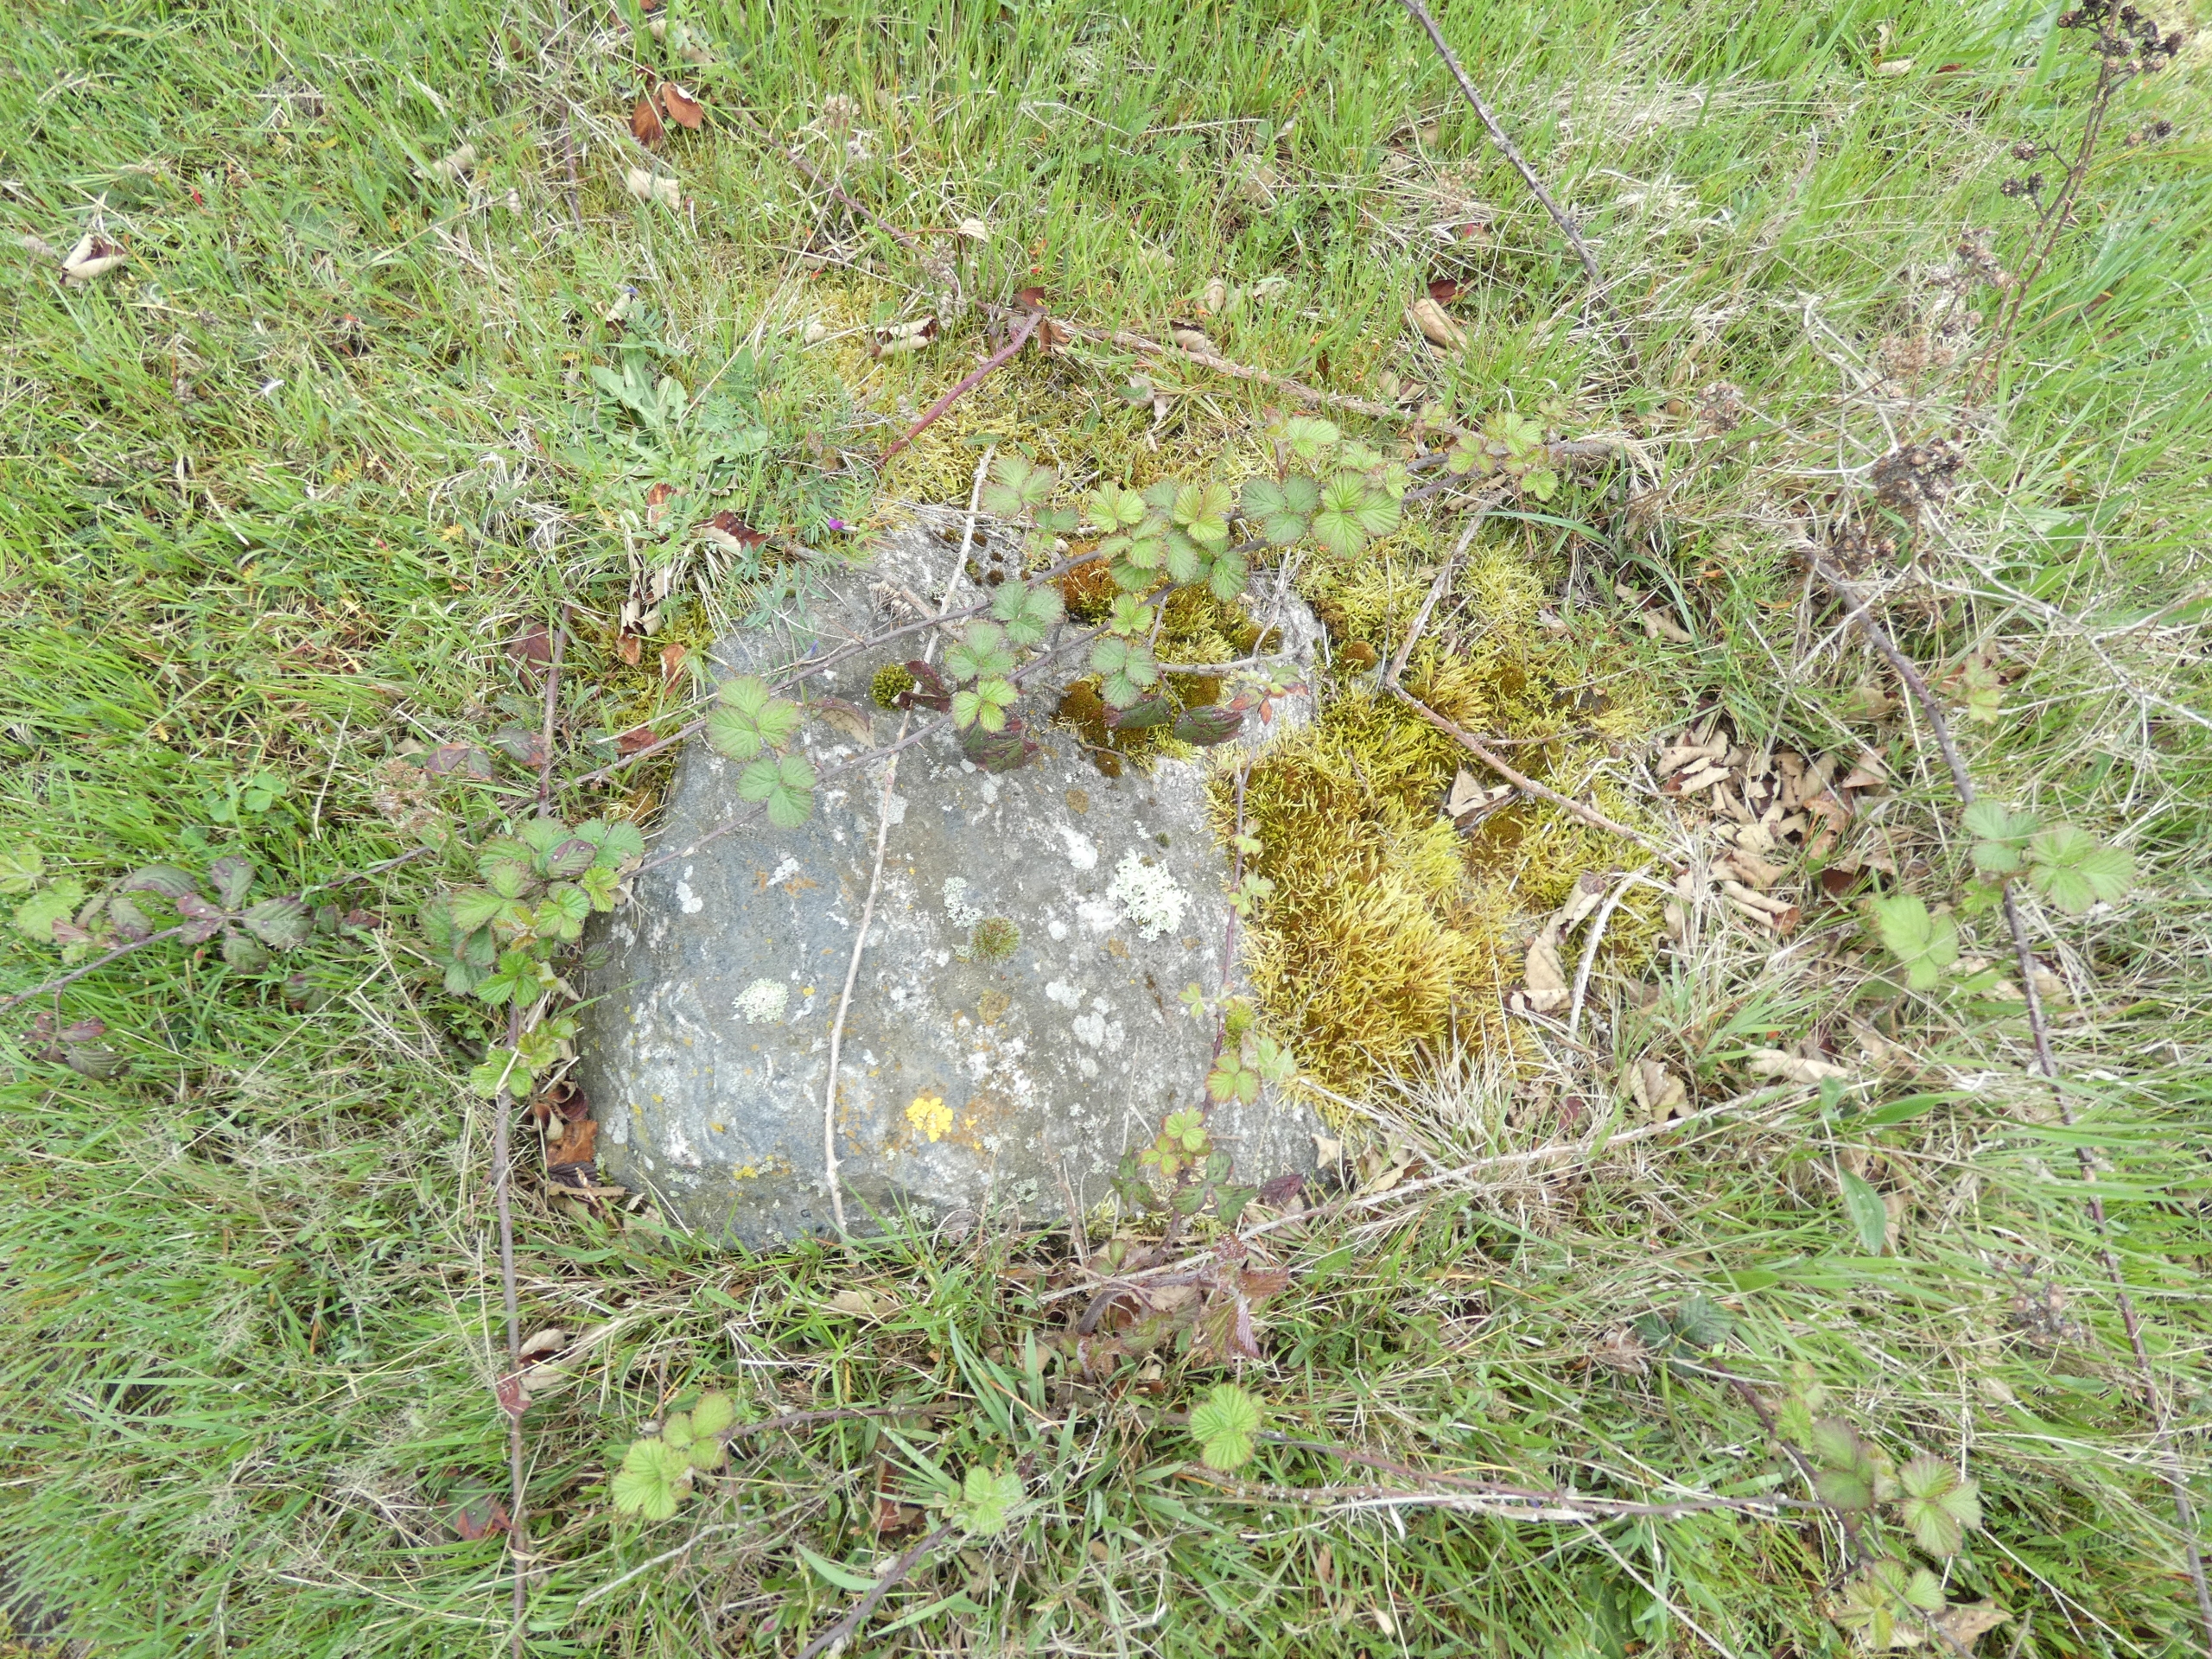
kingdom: Fungi
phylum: Ascomycota
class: Lecanoromycetes
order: Lecanorales
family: Parmeliaceae
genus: Evernia
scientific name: Evernia prunastri
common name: Almindelig slåenlav
